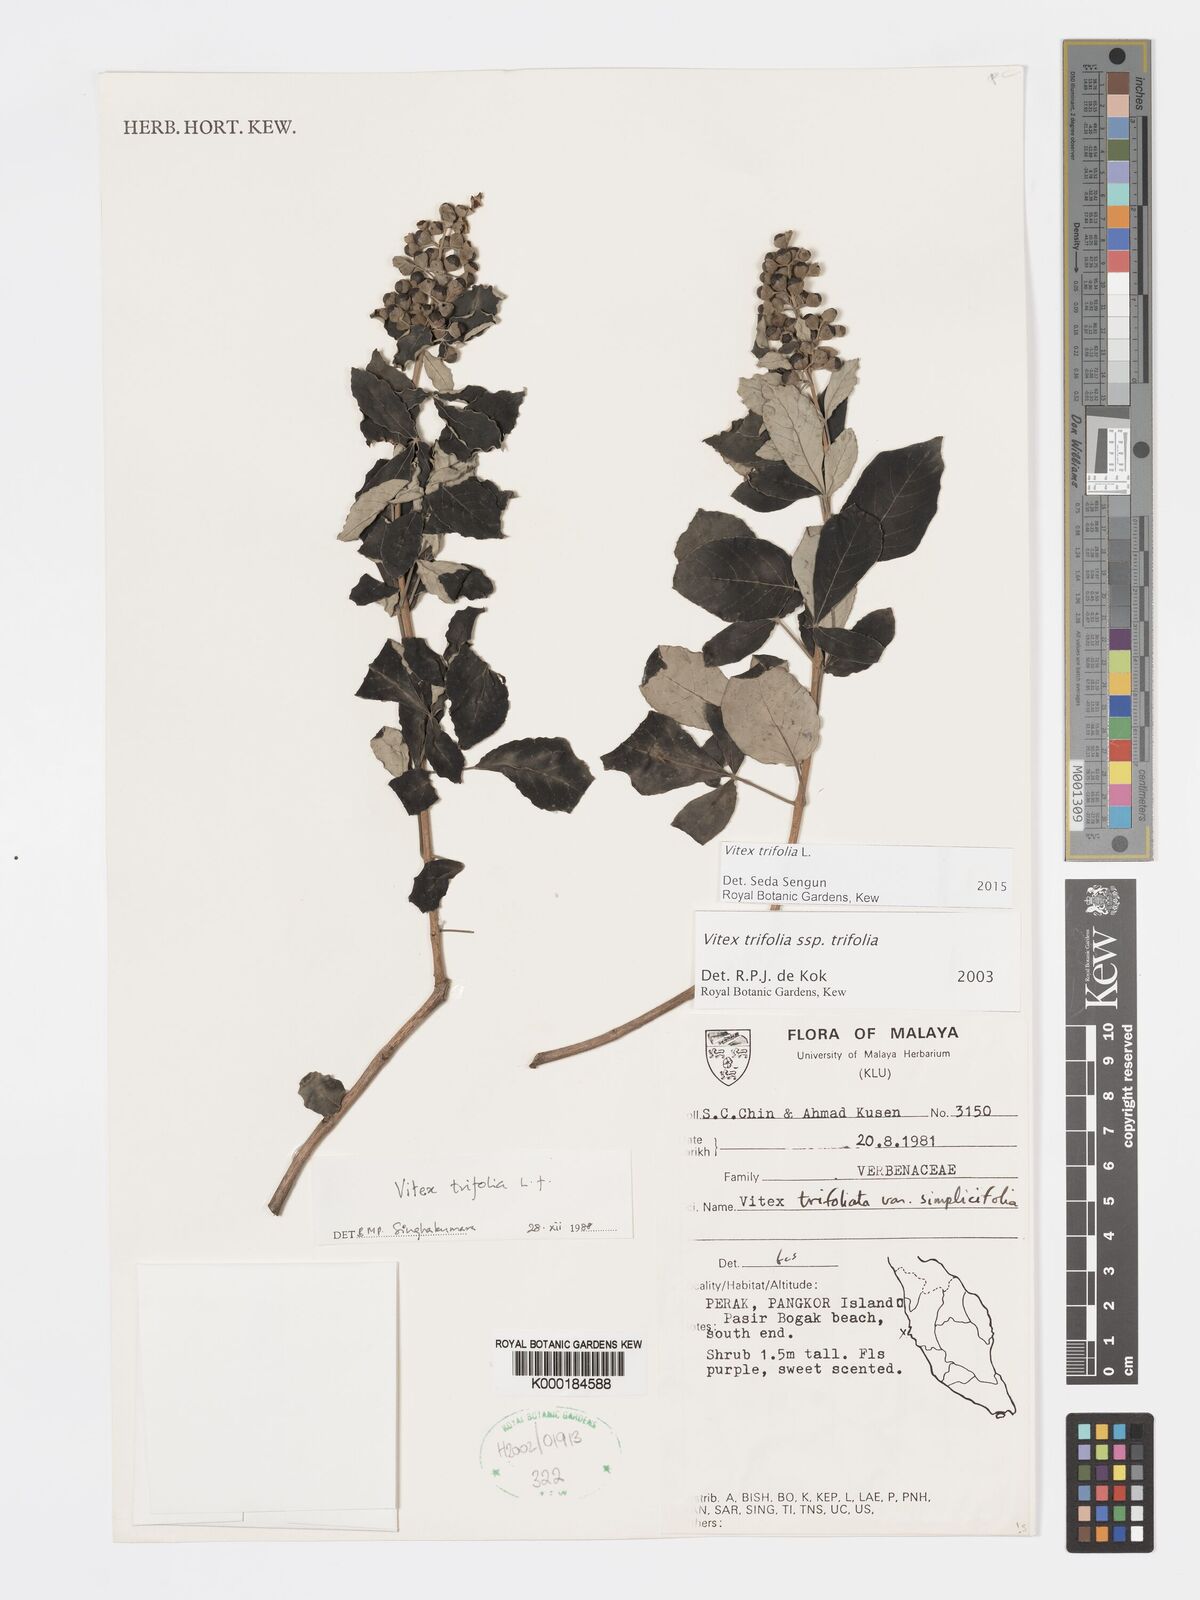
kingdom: Plantae
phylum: Tracheophyta
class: Magnoliopsida
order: Lamiales
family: Lamiaceae
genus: Vitex
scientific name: Vitex trifolia
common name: Simpleleaf chastetree
